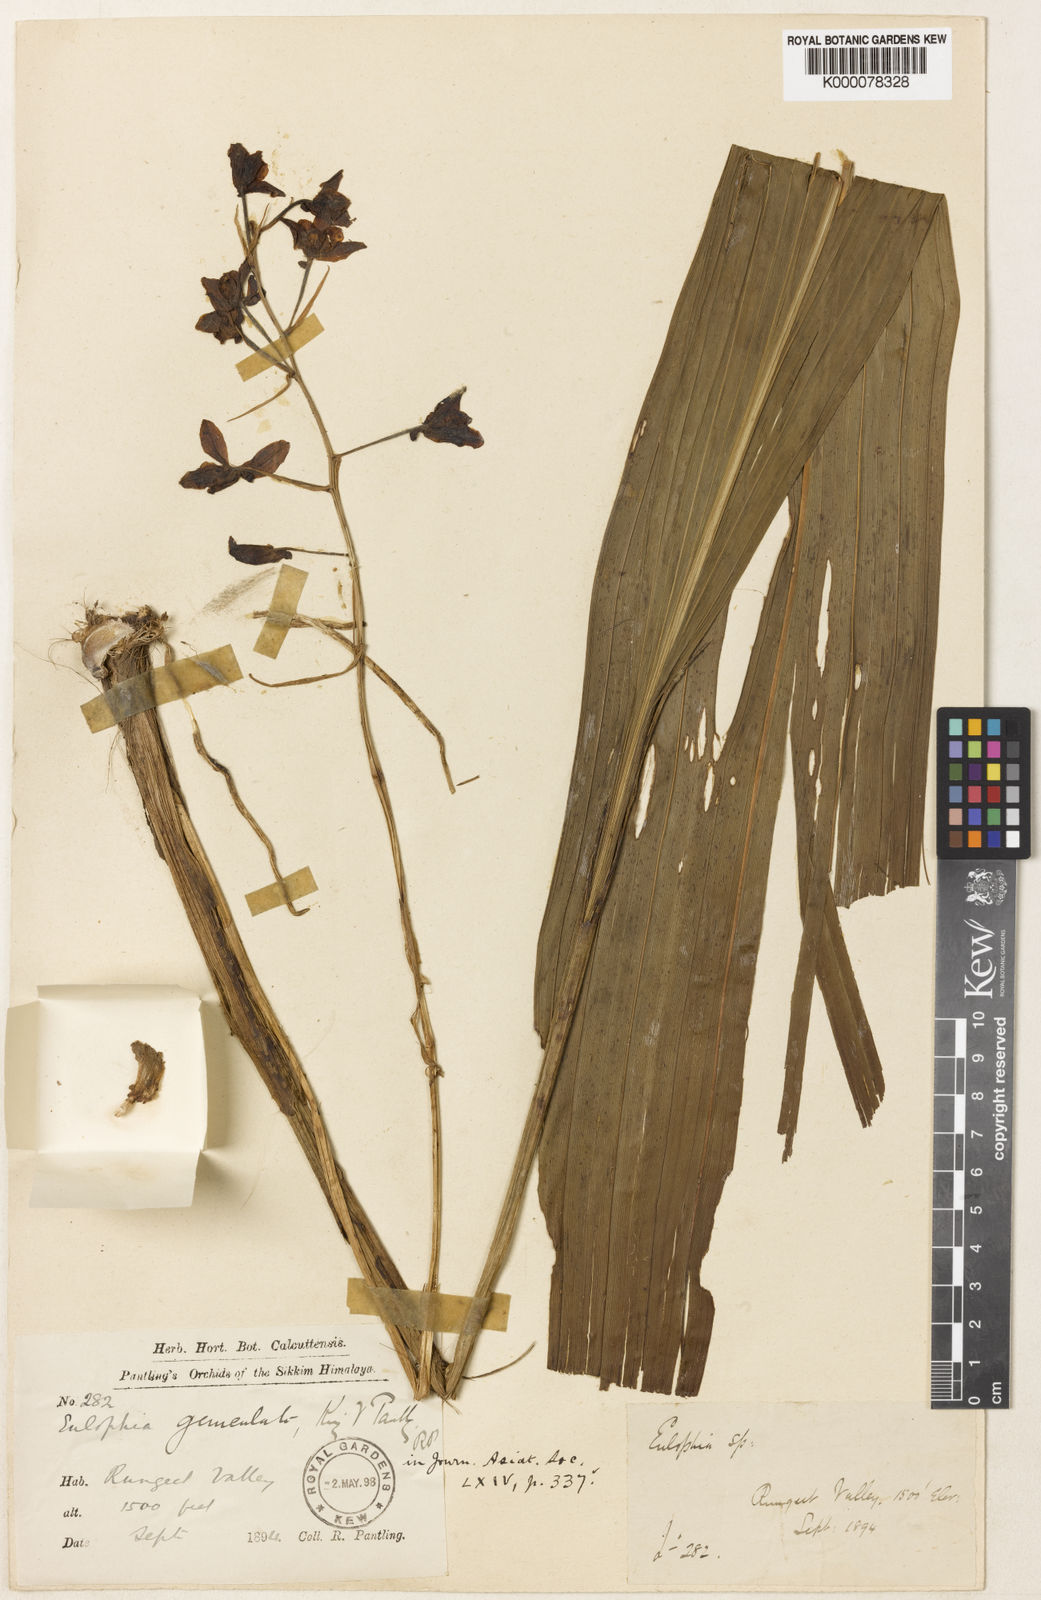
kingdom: Plantae
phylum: Tracheophyta
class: Liliopsida
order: Asparagales
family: Orchidaceae
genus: Eulophia
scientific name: Eulophia promensis
